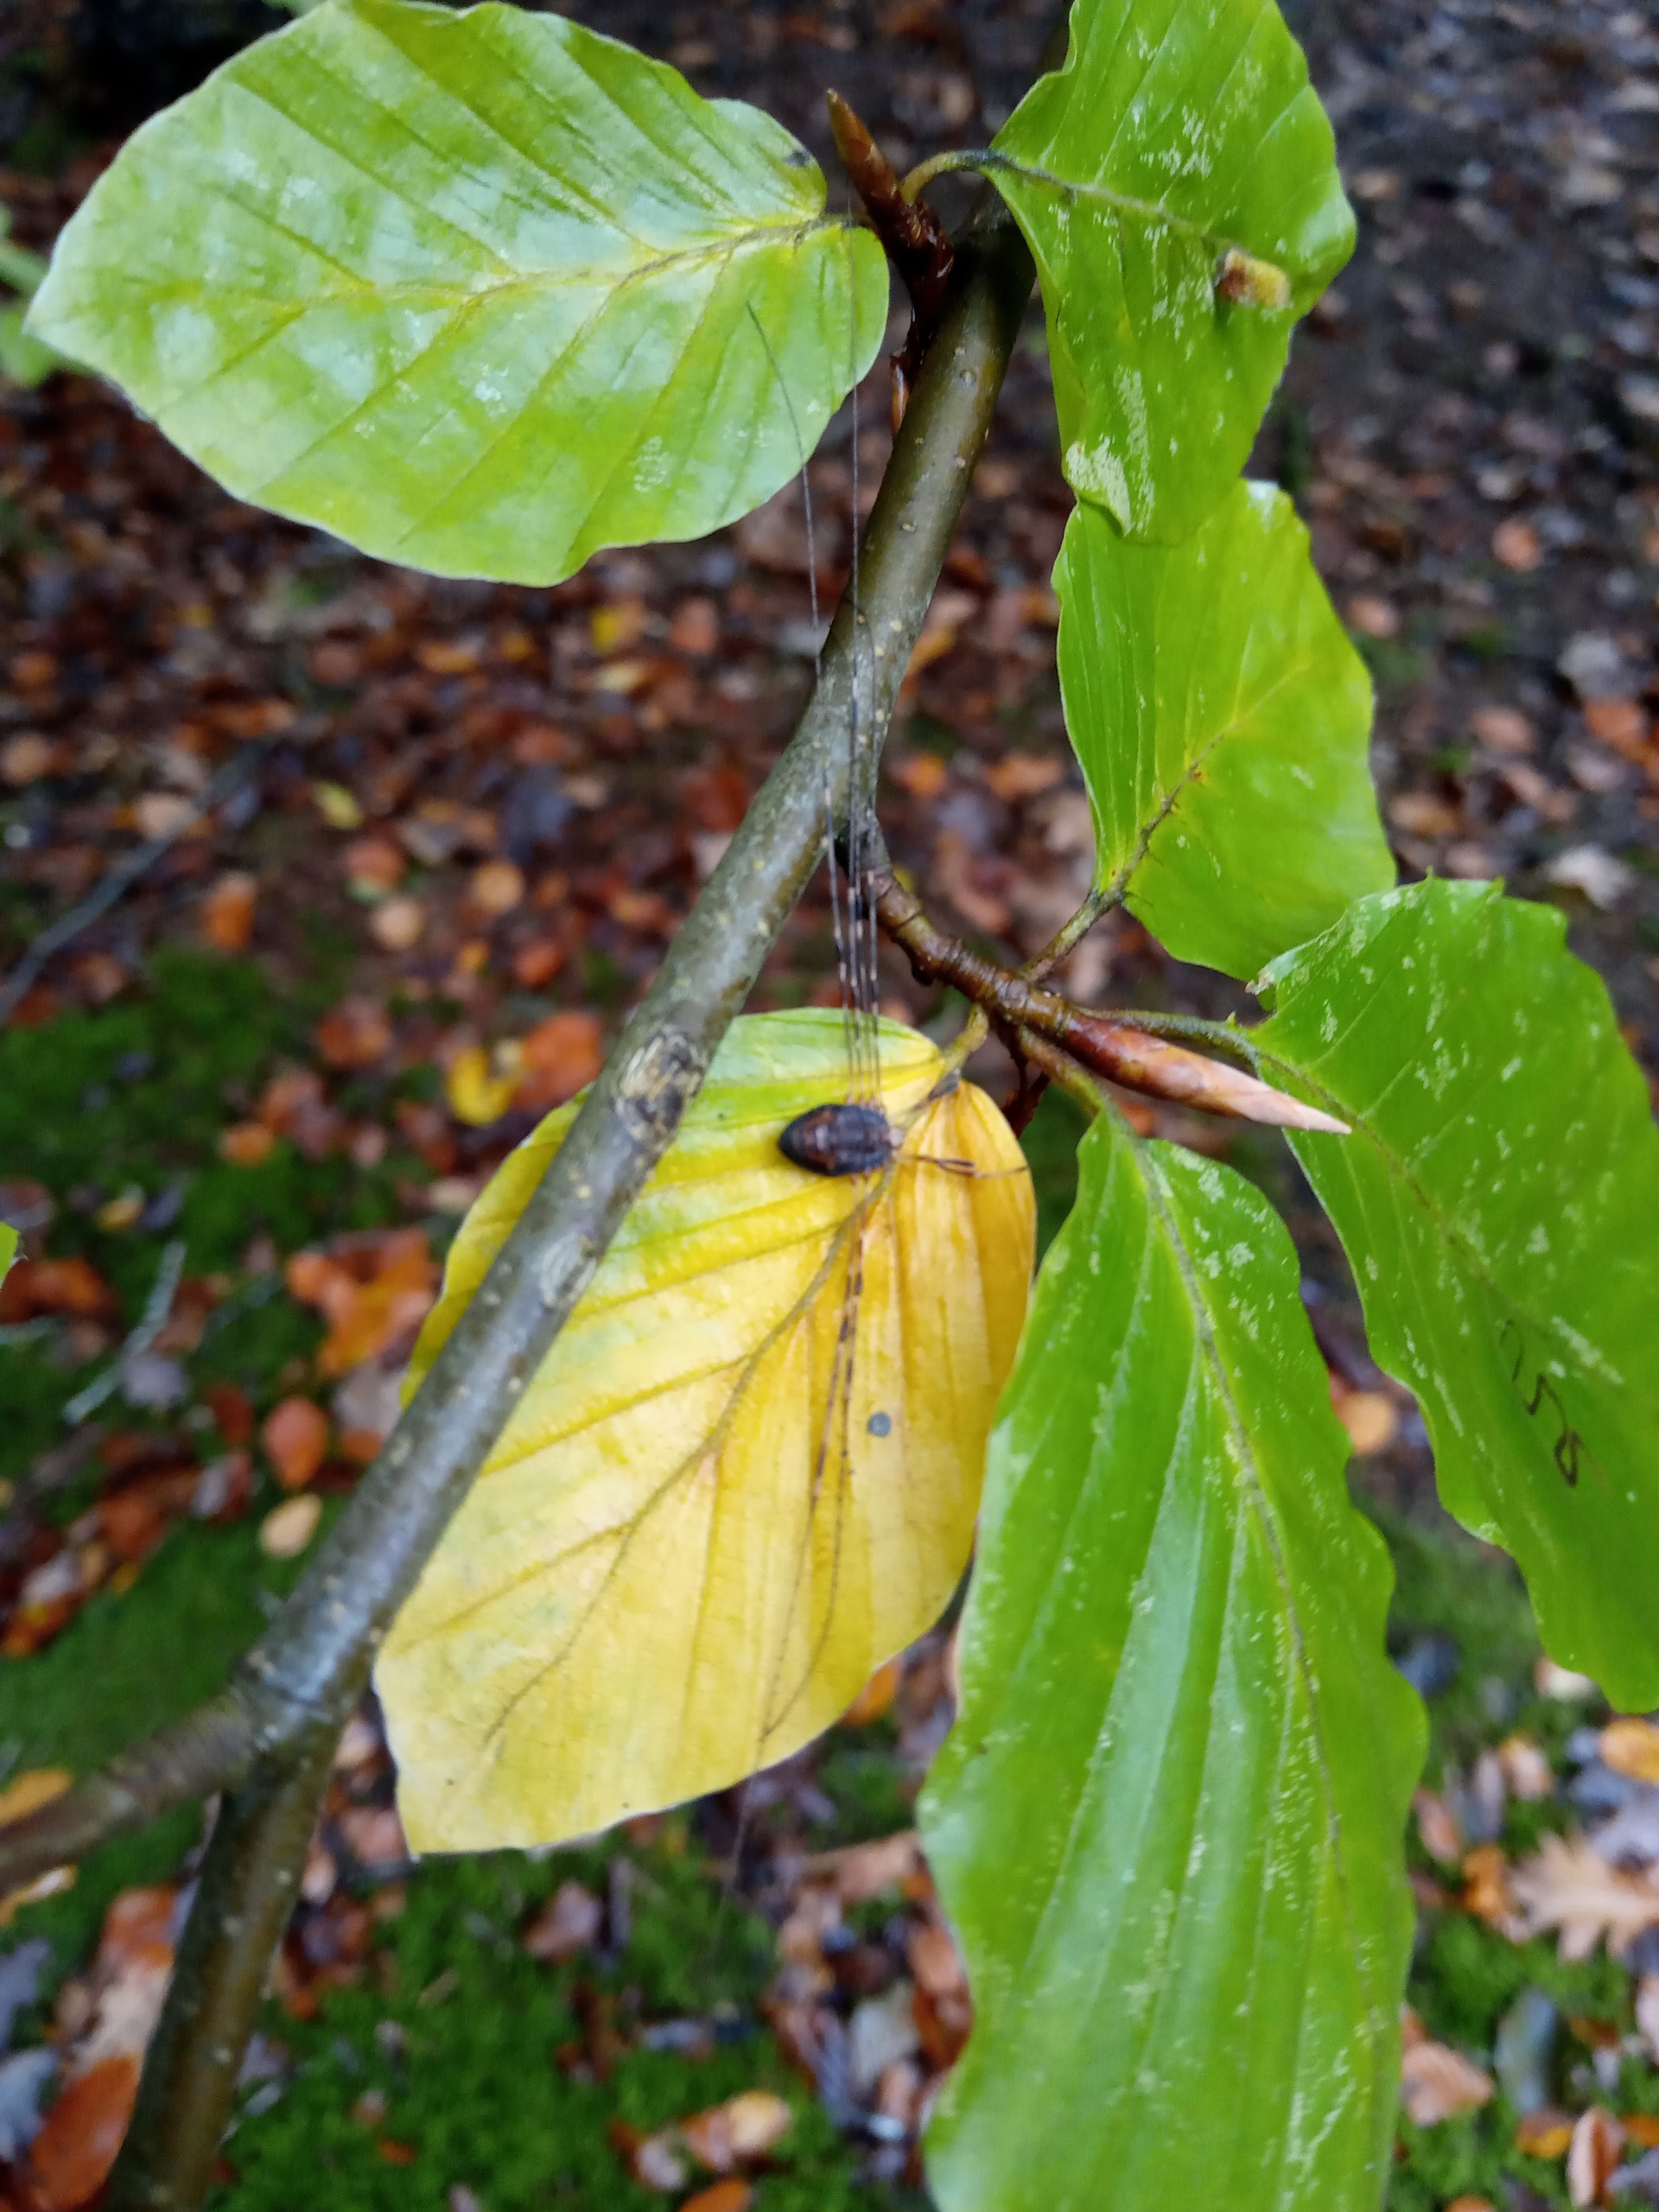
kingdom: Animalia
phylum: Arthropoda
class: Arachnida
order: Opiliones
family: Phalangiidae
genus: Dicranopalpus
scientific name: Dicranopalpus ramosus
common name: Gaffelmejer
